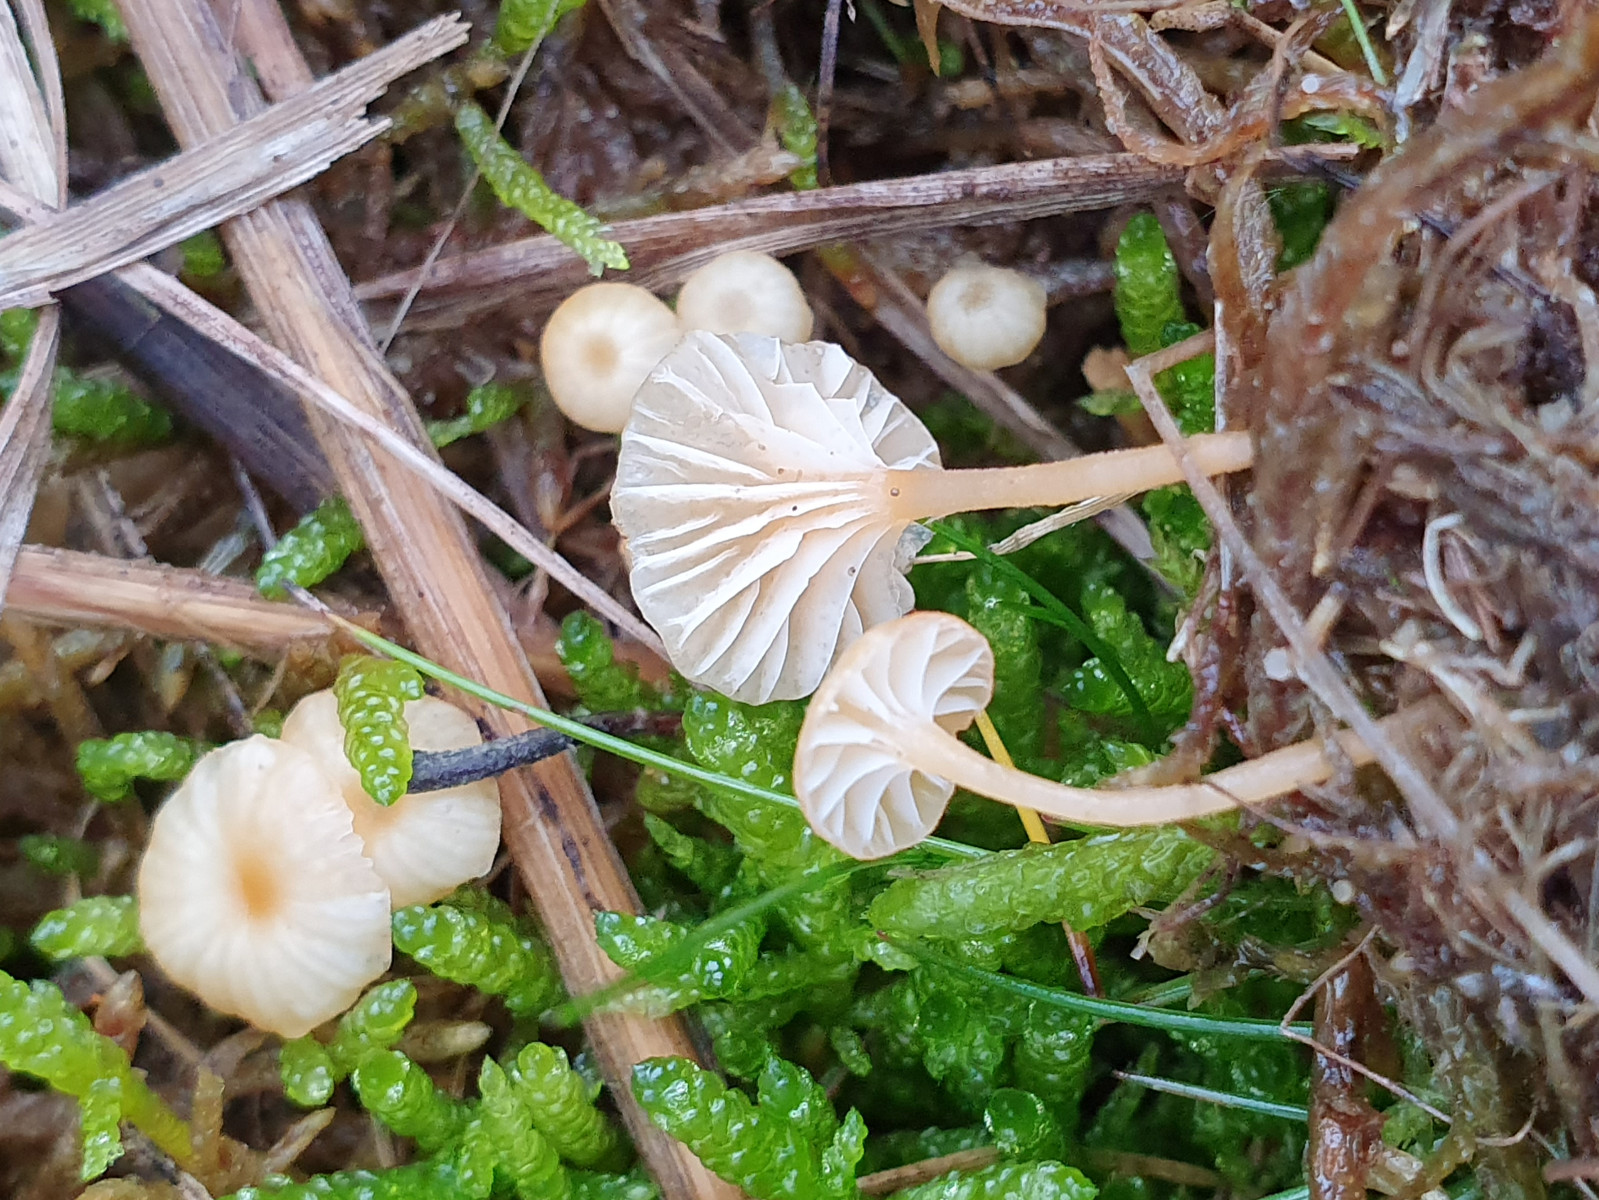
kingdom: Fungi
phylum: Basidiomycota
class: Agaricomycetes
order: Hymenochaetales
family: Rickenellaceae
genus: Rickenella
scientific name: Rickenella fibula
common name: orange mosnavlehat
